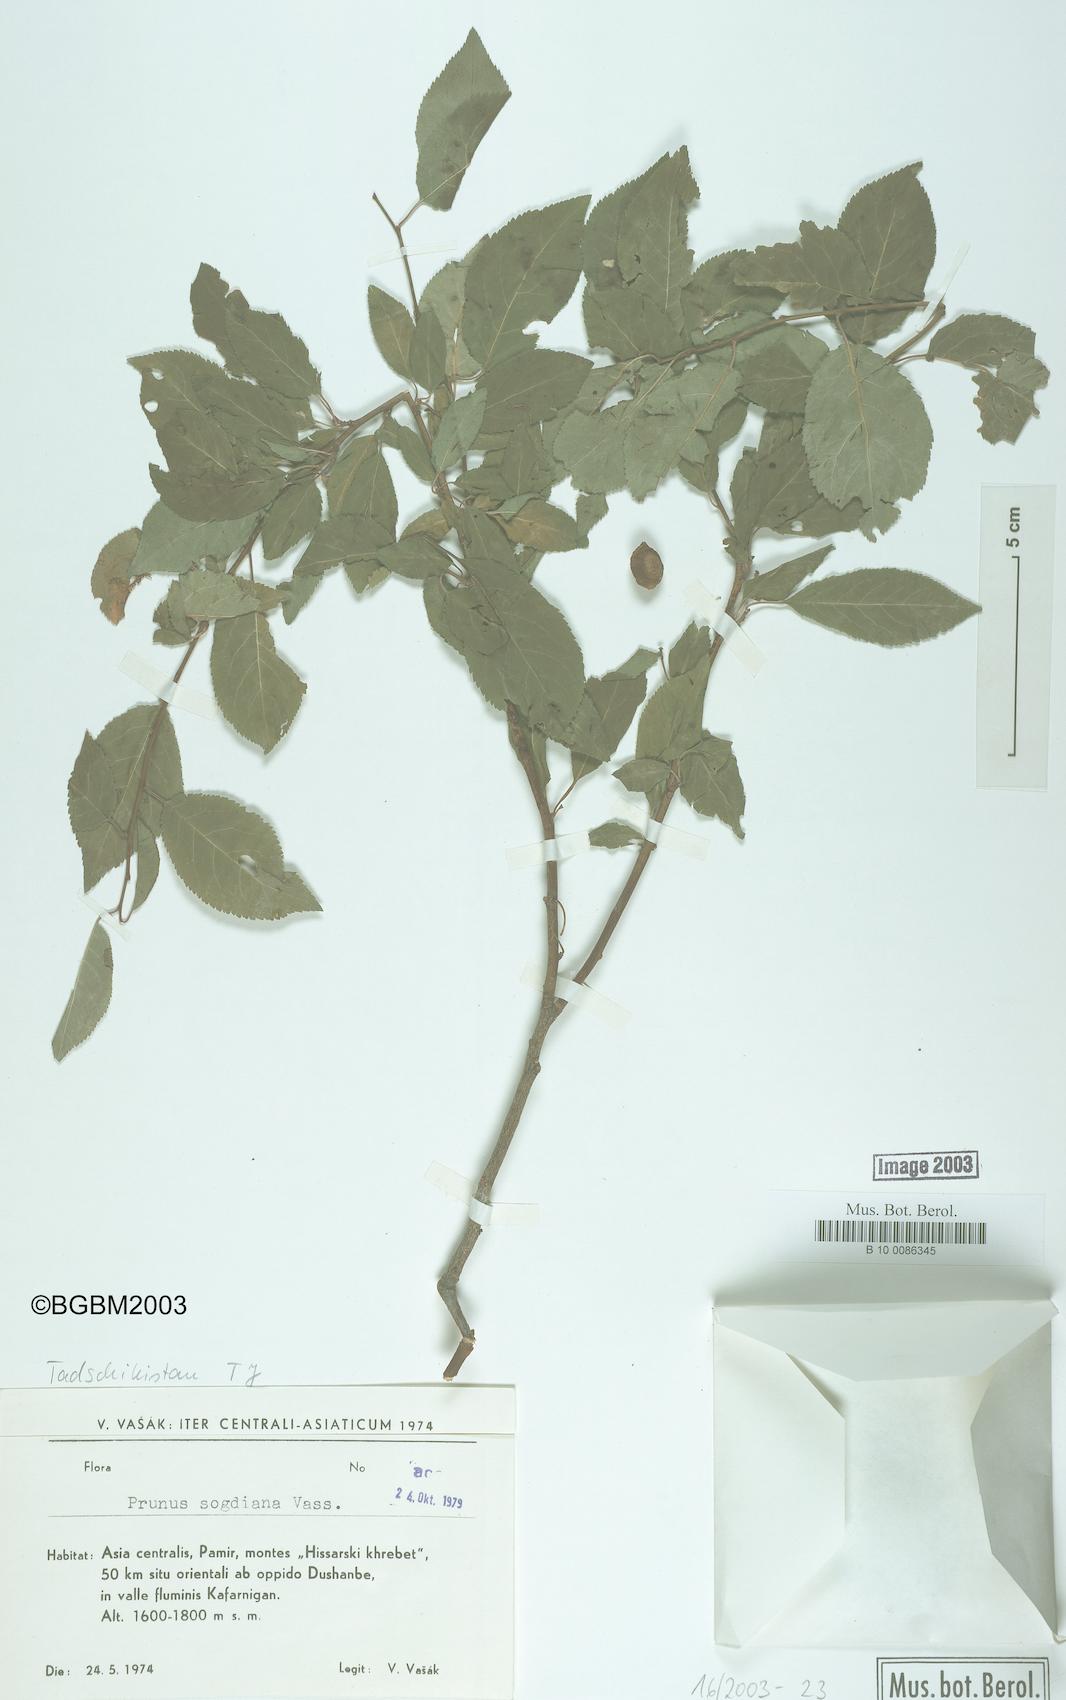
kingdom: Plantae
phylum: Tracheophyta
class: Magnoliopsida
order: Rosales
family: Rosaceae
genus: Prunus
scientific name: Prunus cerasifera
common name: Cherry plum
